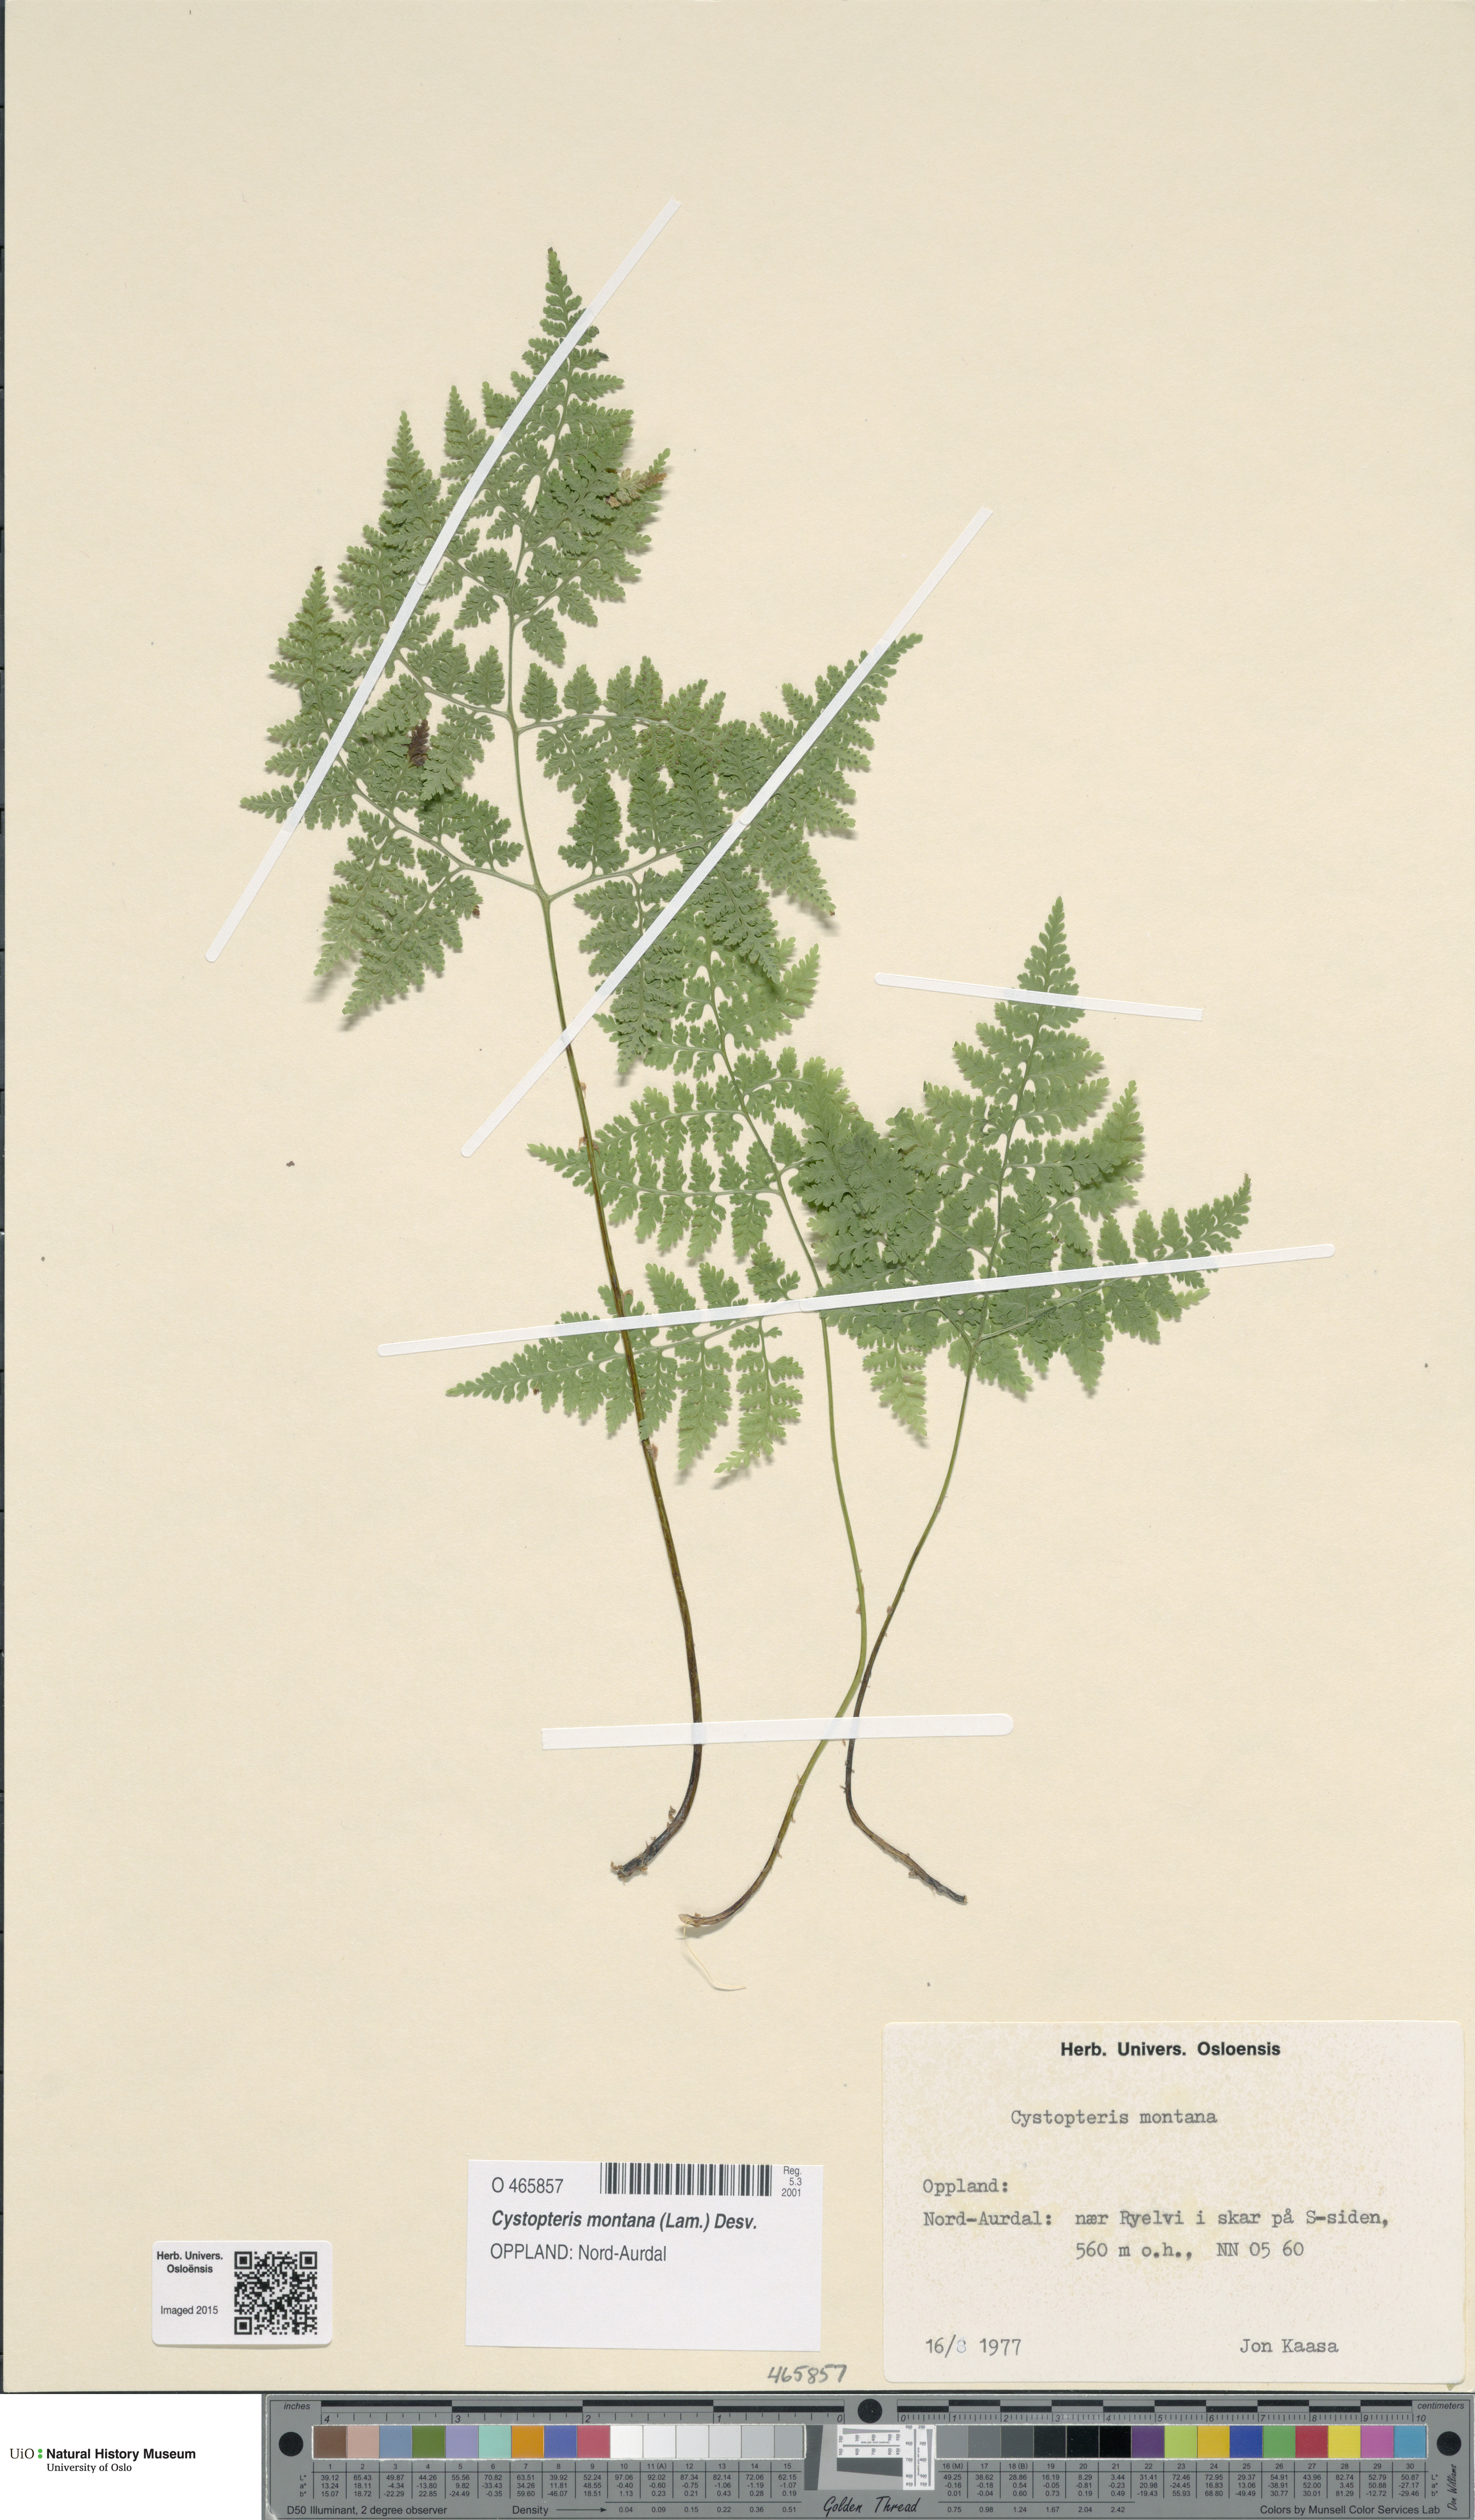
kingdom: Plantae
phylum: Tracheophyta
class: Polypodiopsida
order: Polypodiales
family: Cystopteridaceae
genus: Cystopteris
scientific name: Cystopteris montana
